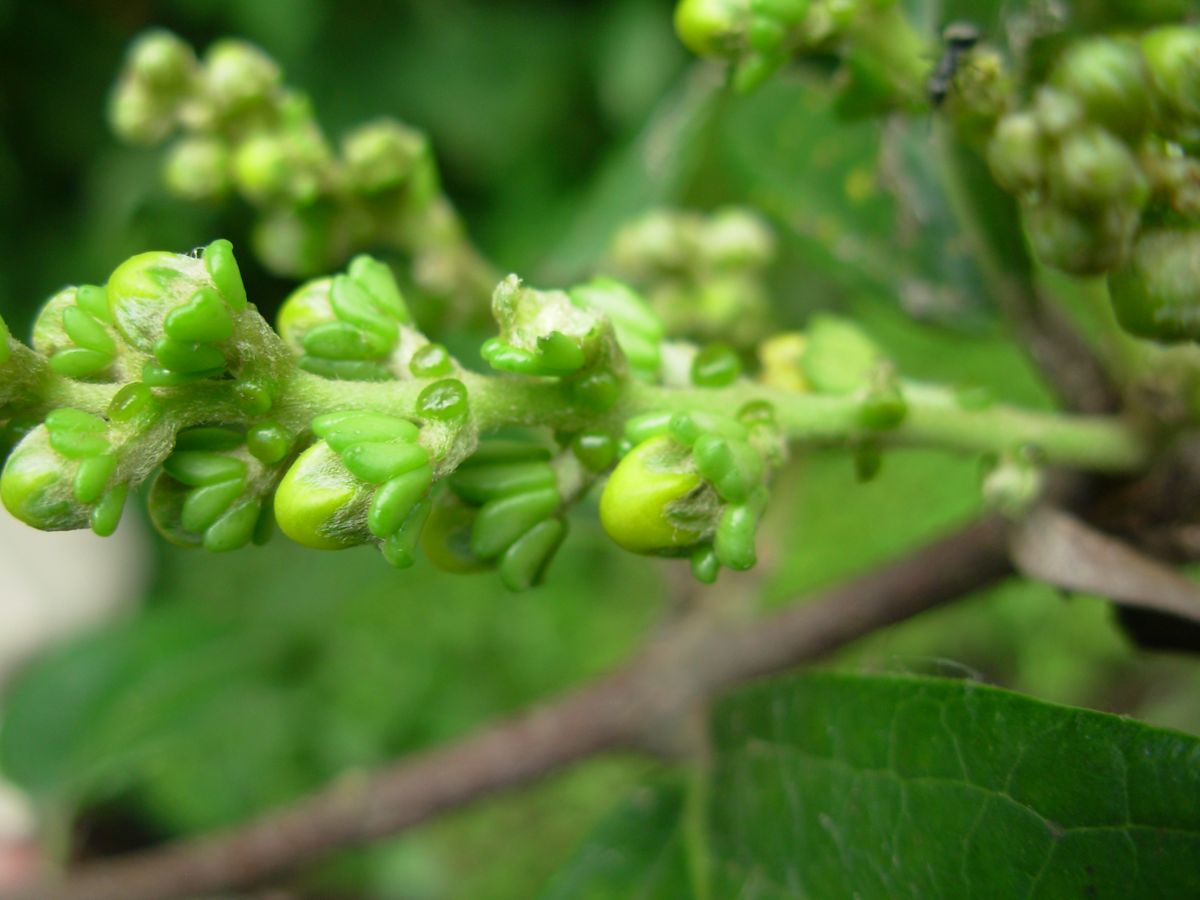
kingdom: Plantae
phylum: Tracheophyta
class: Magnoliopsida
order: Malpighiales
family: Malpighiaceae
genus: Bunchosia
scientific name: Bunchosia
